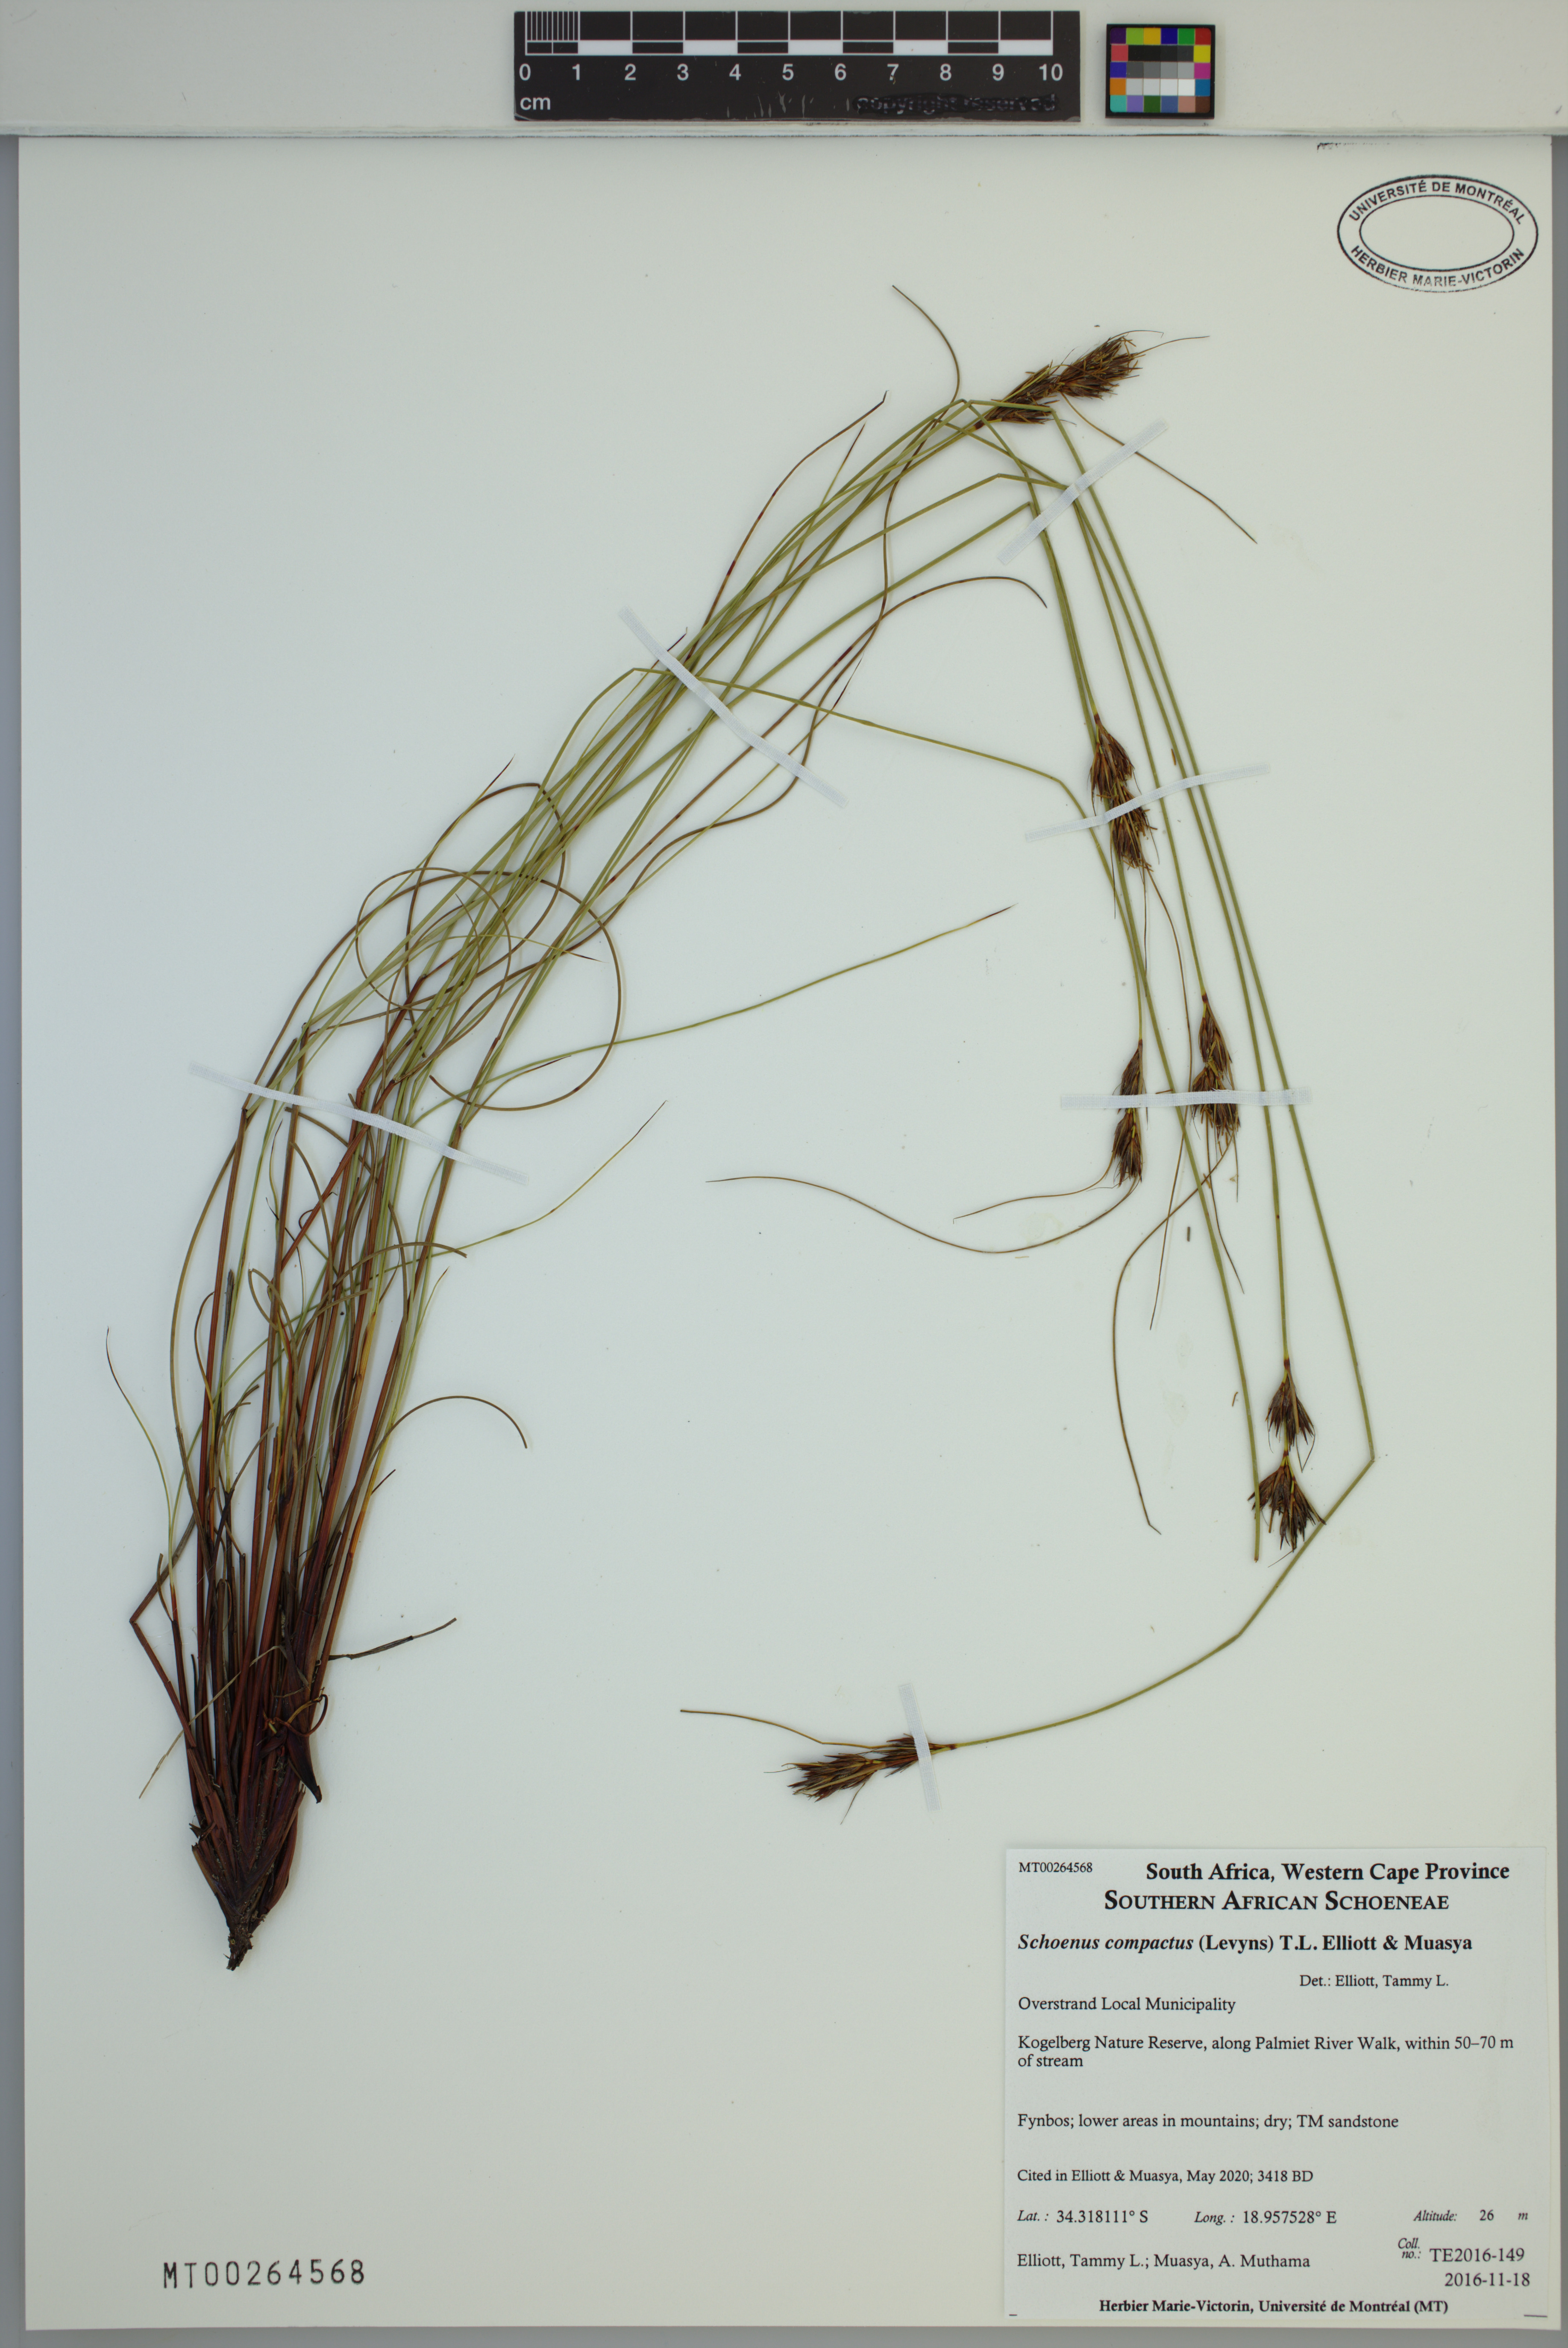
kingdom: Plantae
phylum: Tracheophyta
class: Liliopsida
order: Poales
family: Cyperaceae
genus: Schoenus
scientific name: Schoenus compactus
